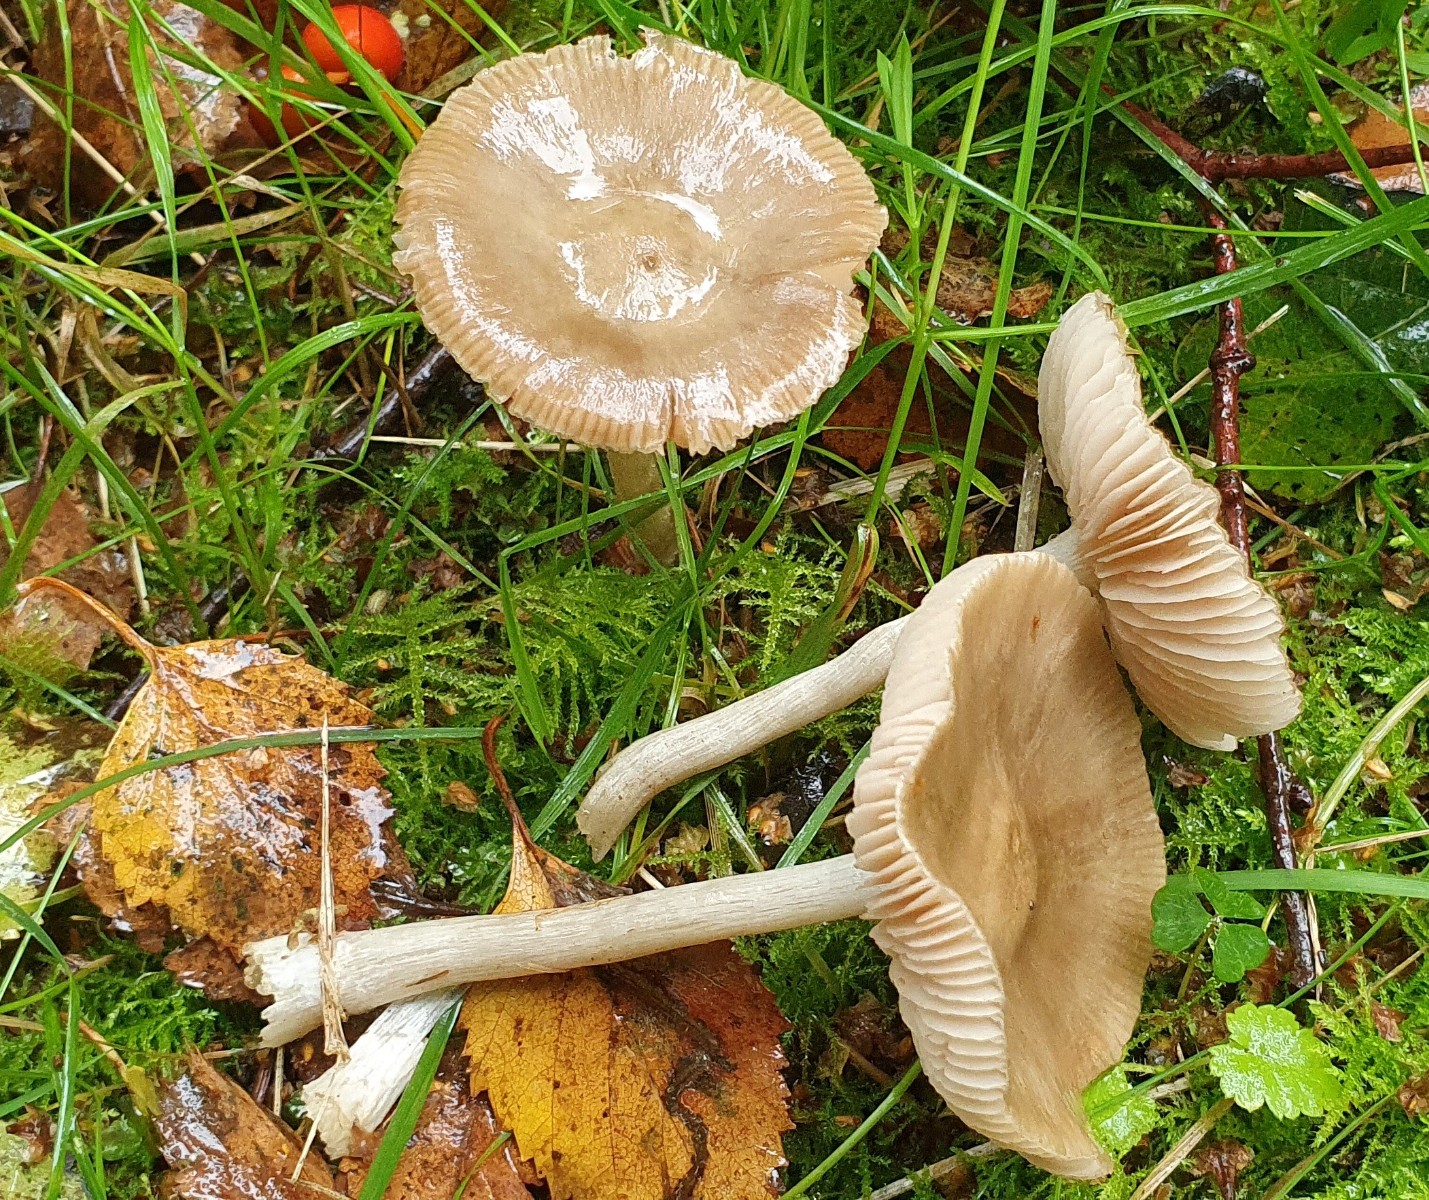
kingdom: Fungi
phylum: Basidiomycota
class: Agaricomycetes
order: Agaricales
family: Entolomataceae
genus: Entoloma
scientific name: Entoloma
